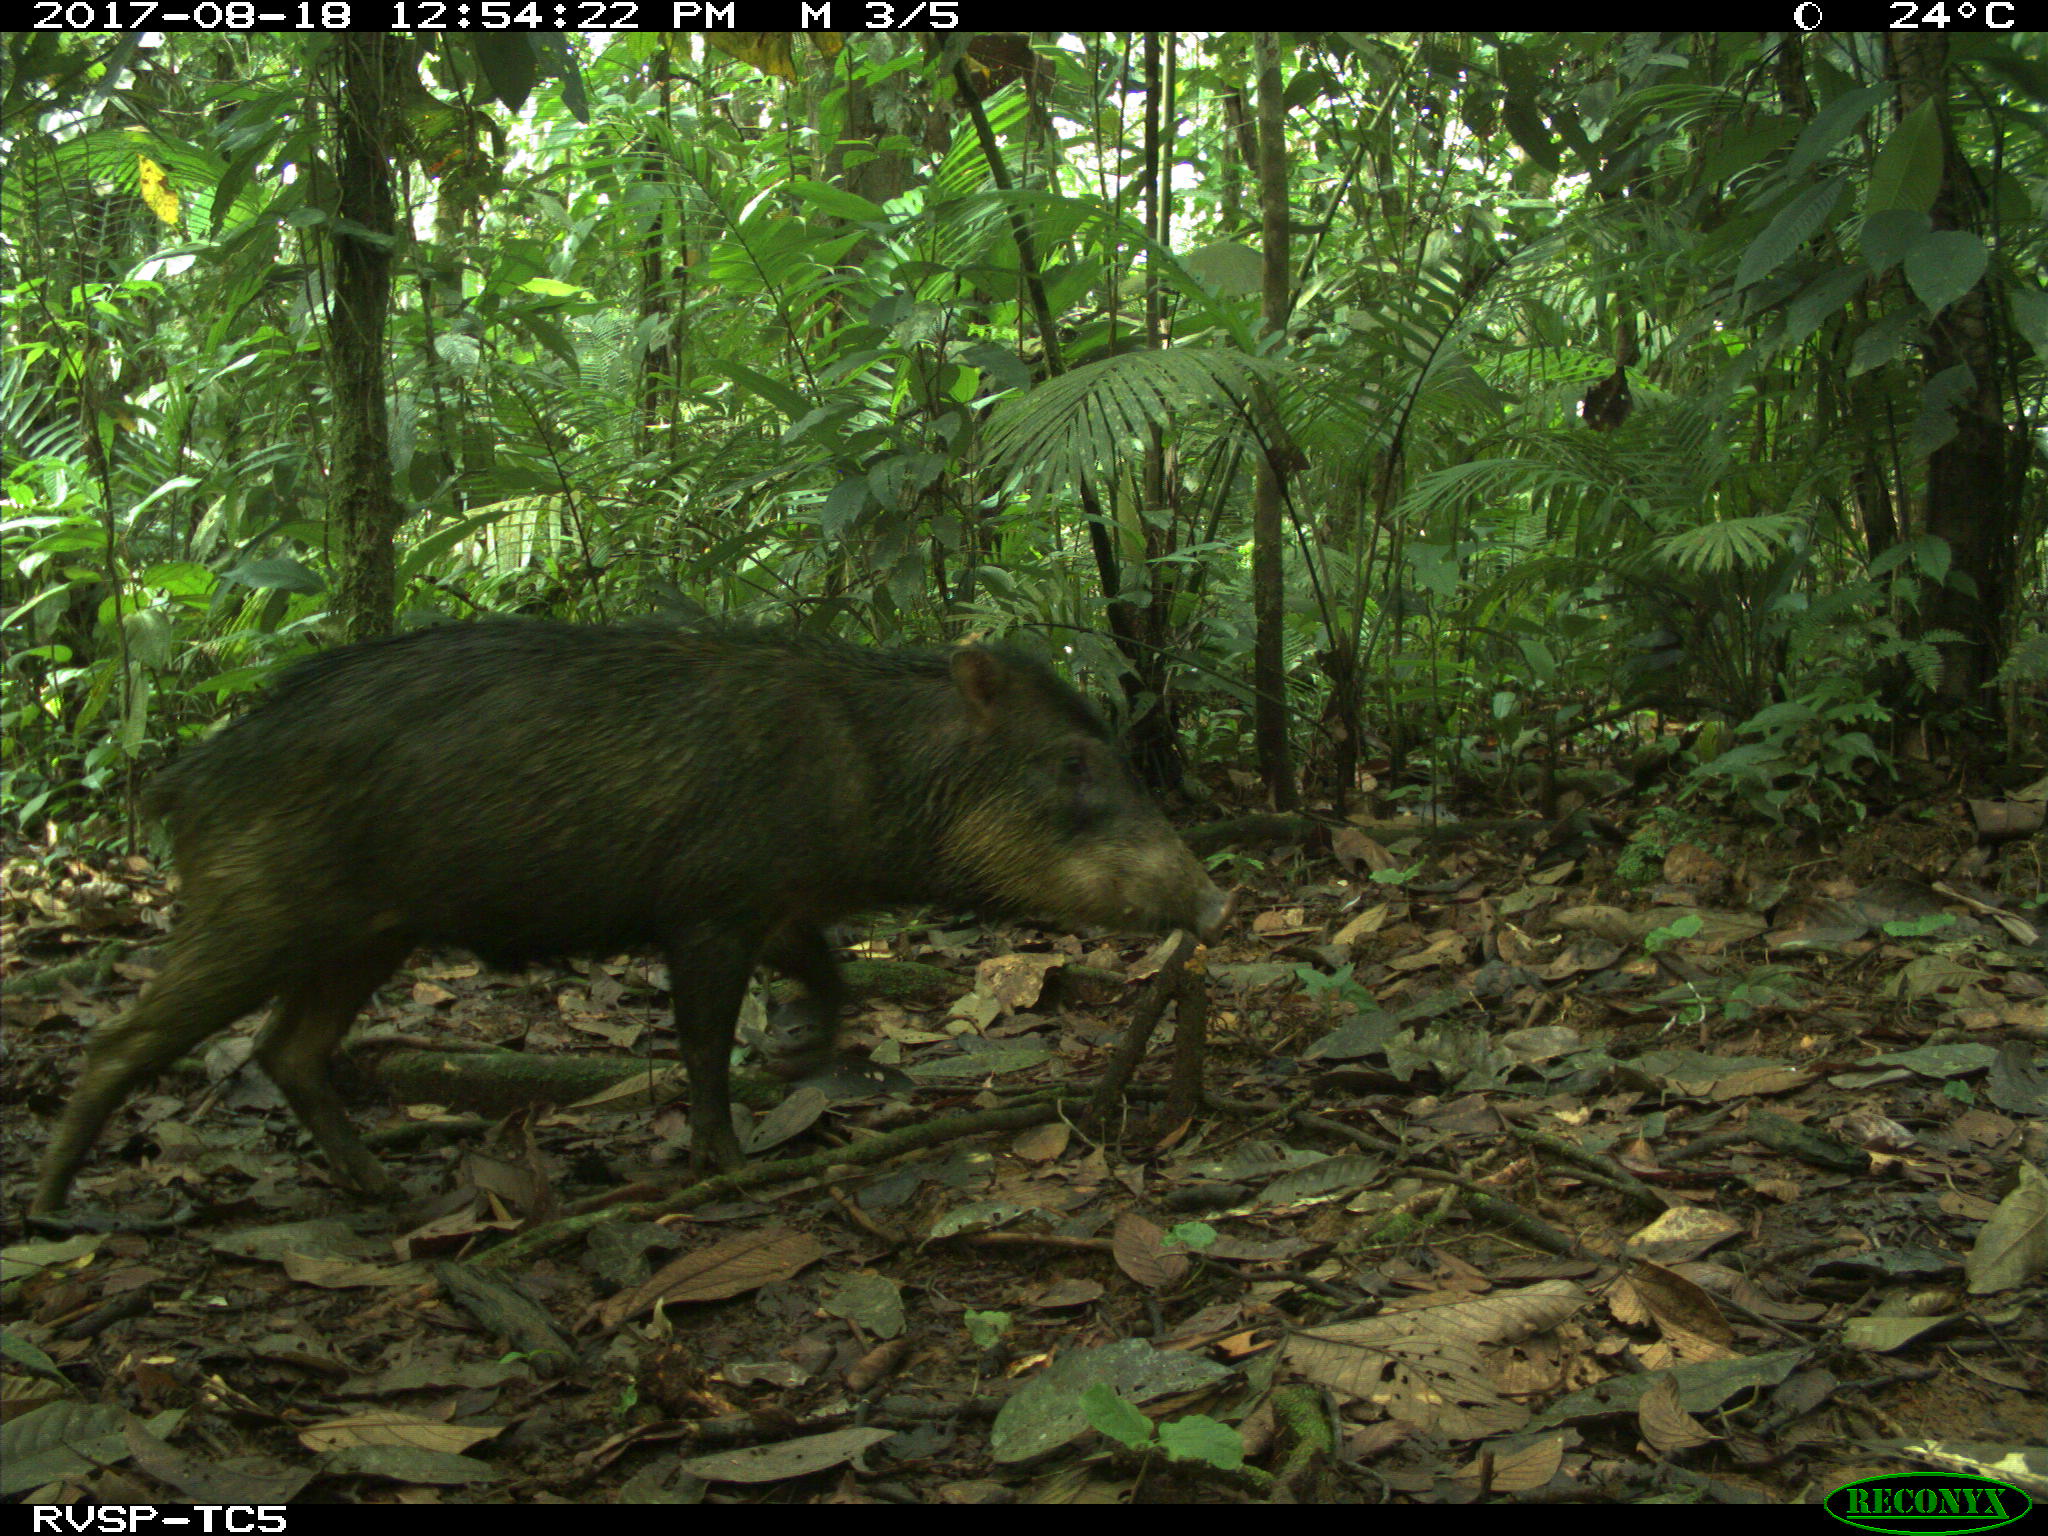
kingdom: Animalia
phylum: Chordata
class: Mammalia
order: Artiodactyla
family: Tayassuidae
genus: Tayassu
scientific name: Tayassu pecari
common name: White-lipped peccary
